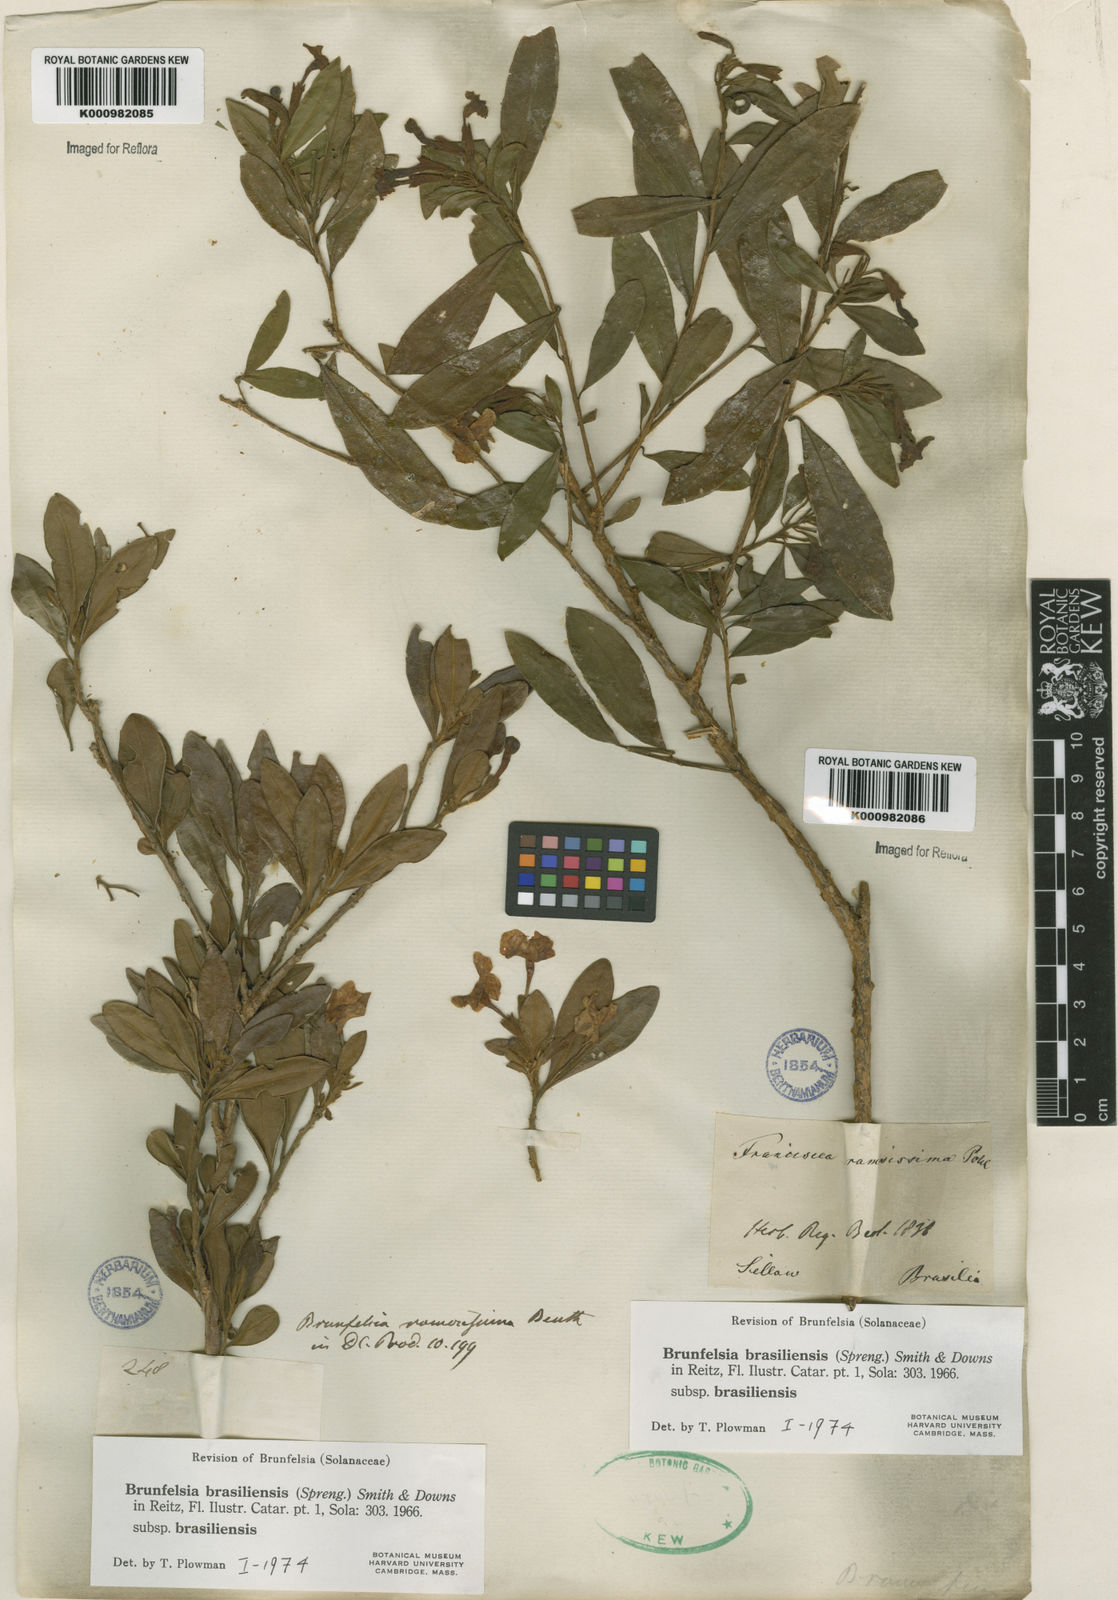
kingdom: Plantae
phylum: Tracheophyta
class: Magnoliopsida
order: Solanales
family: Solanaceae
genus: Brunfelsia
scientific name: Brunfelsia brasiliensis
